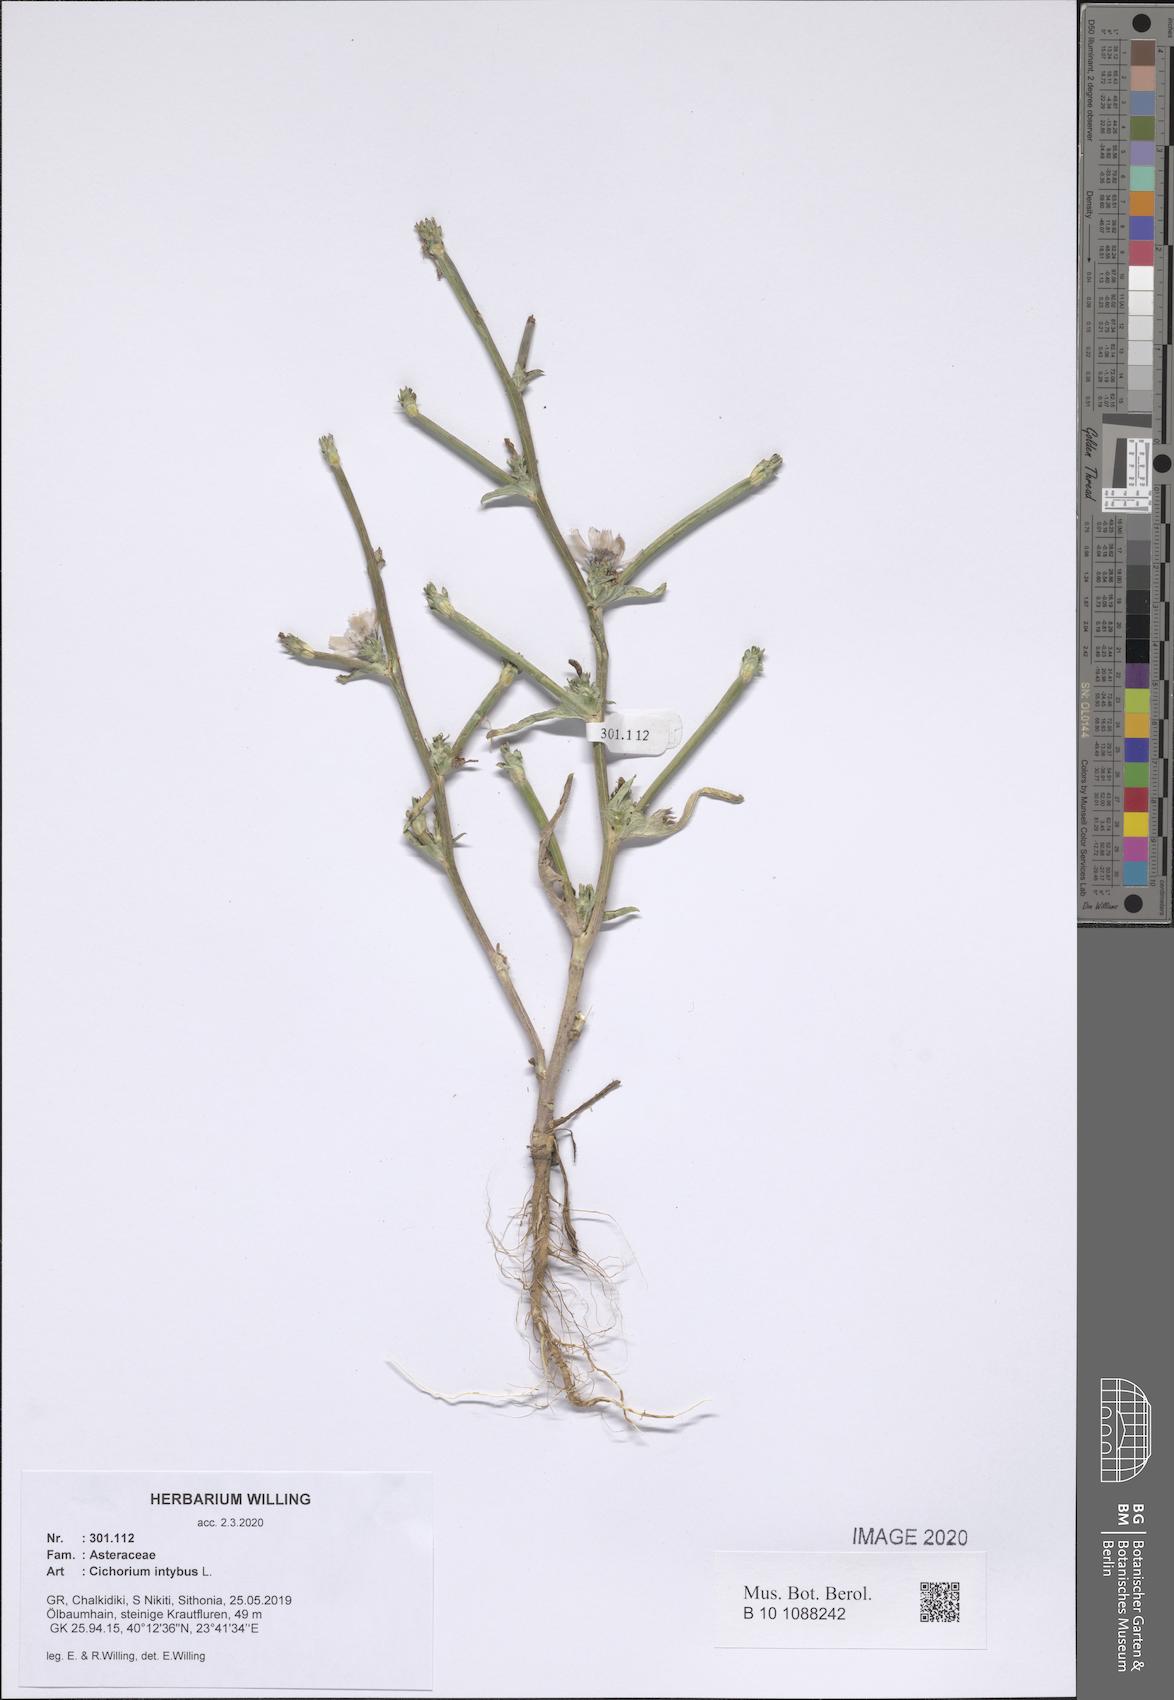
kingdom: Plantae
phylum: Tracheophyta
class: Magnoliopsida
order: Asterales
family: Asteraceae
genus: Cichorium
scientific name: Cichorium intybus
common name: Chicory
